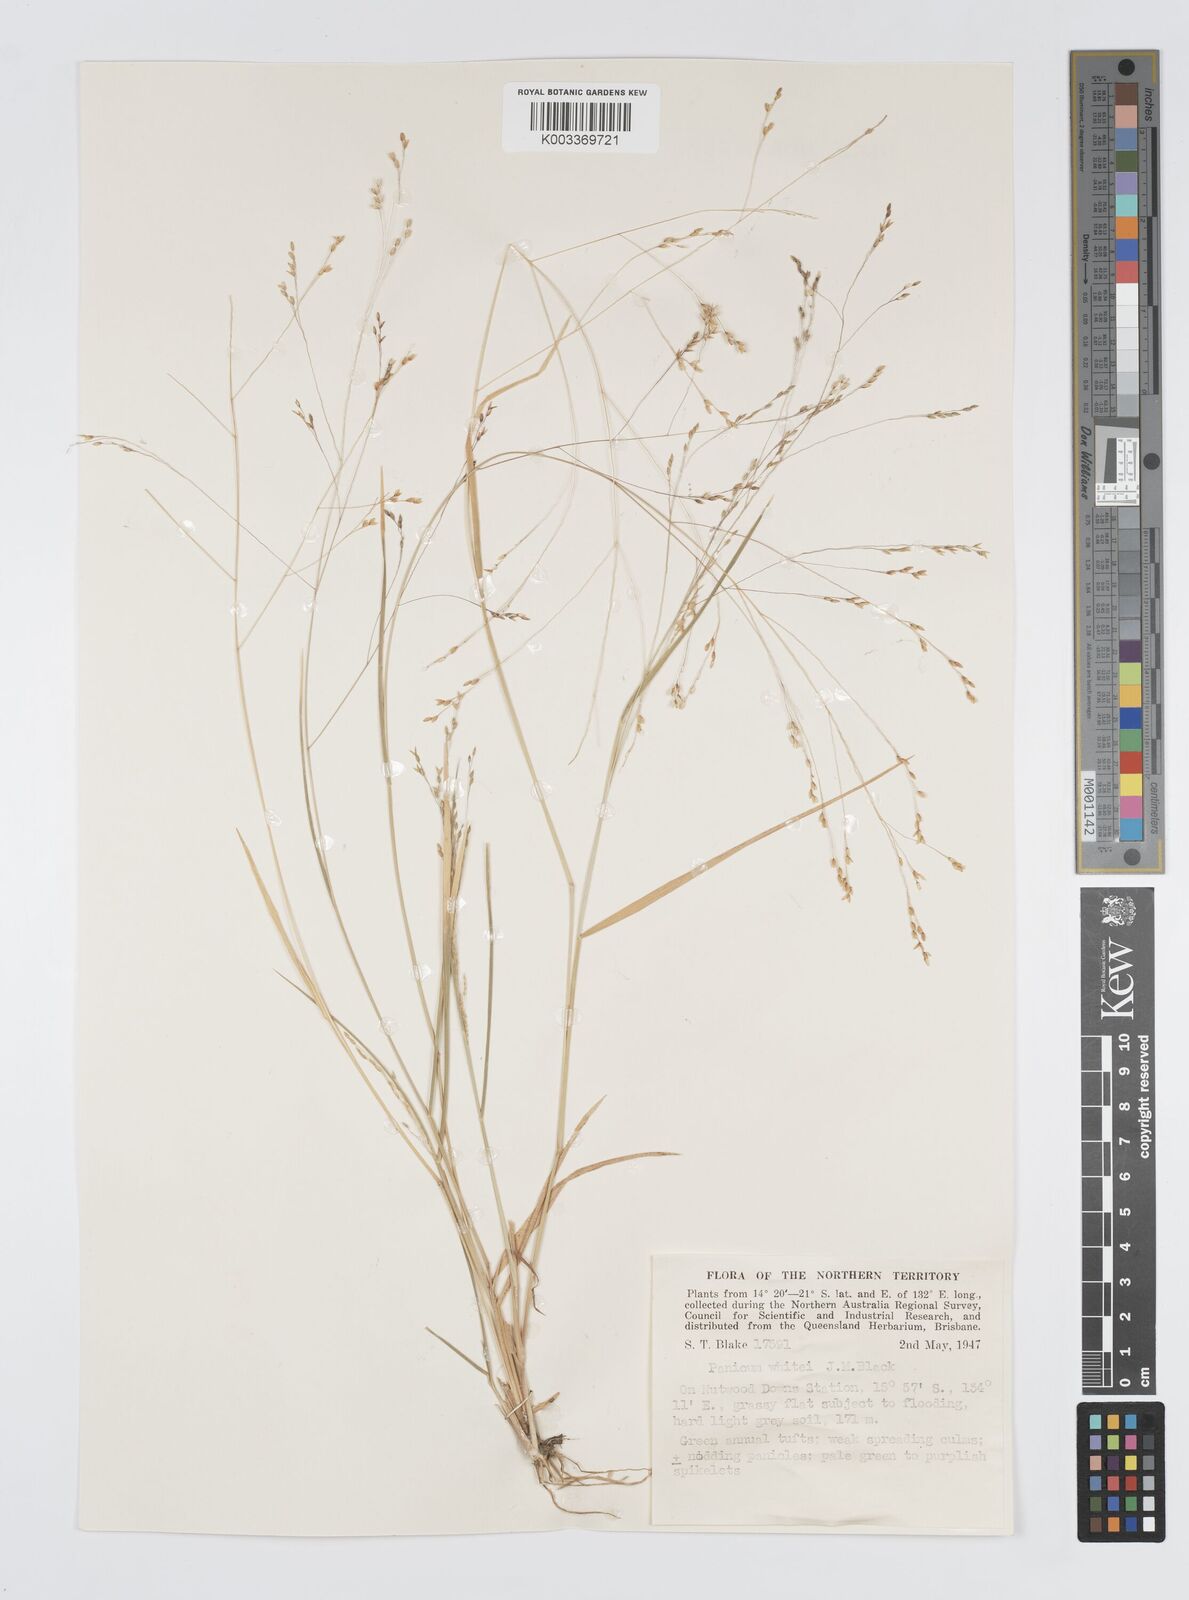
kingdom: Plantae
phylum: Tracheophyta
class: Liliopsida
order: Poales
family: Poaceae
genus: Panicum
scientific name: Panicum laevinode
